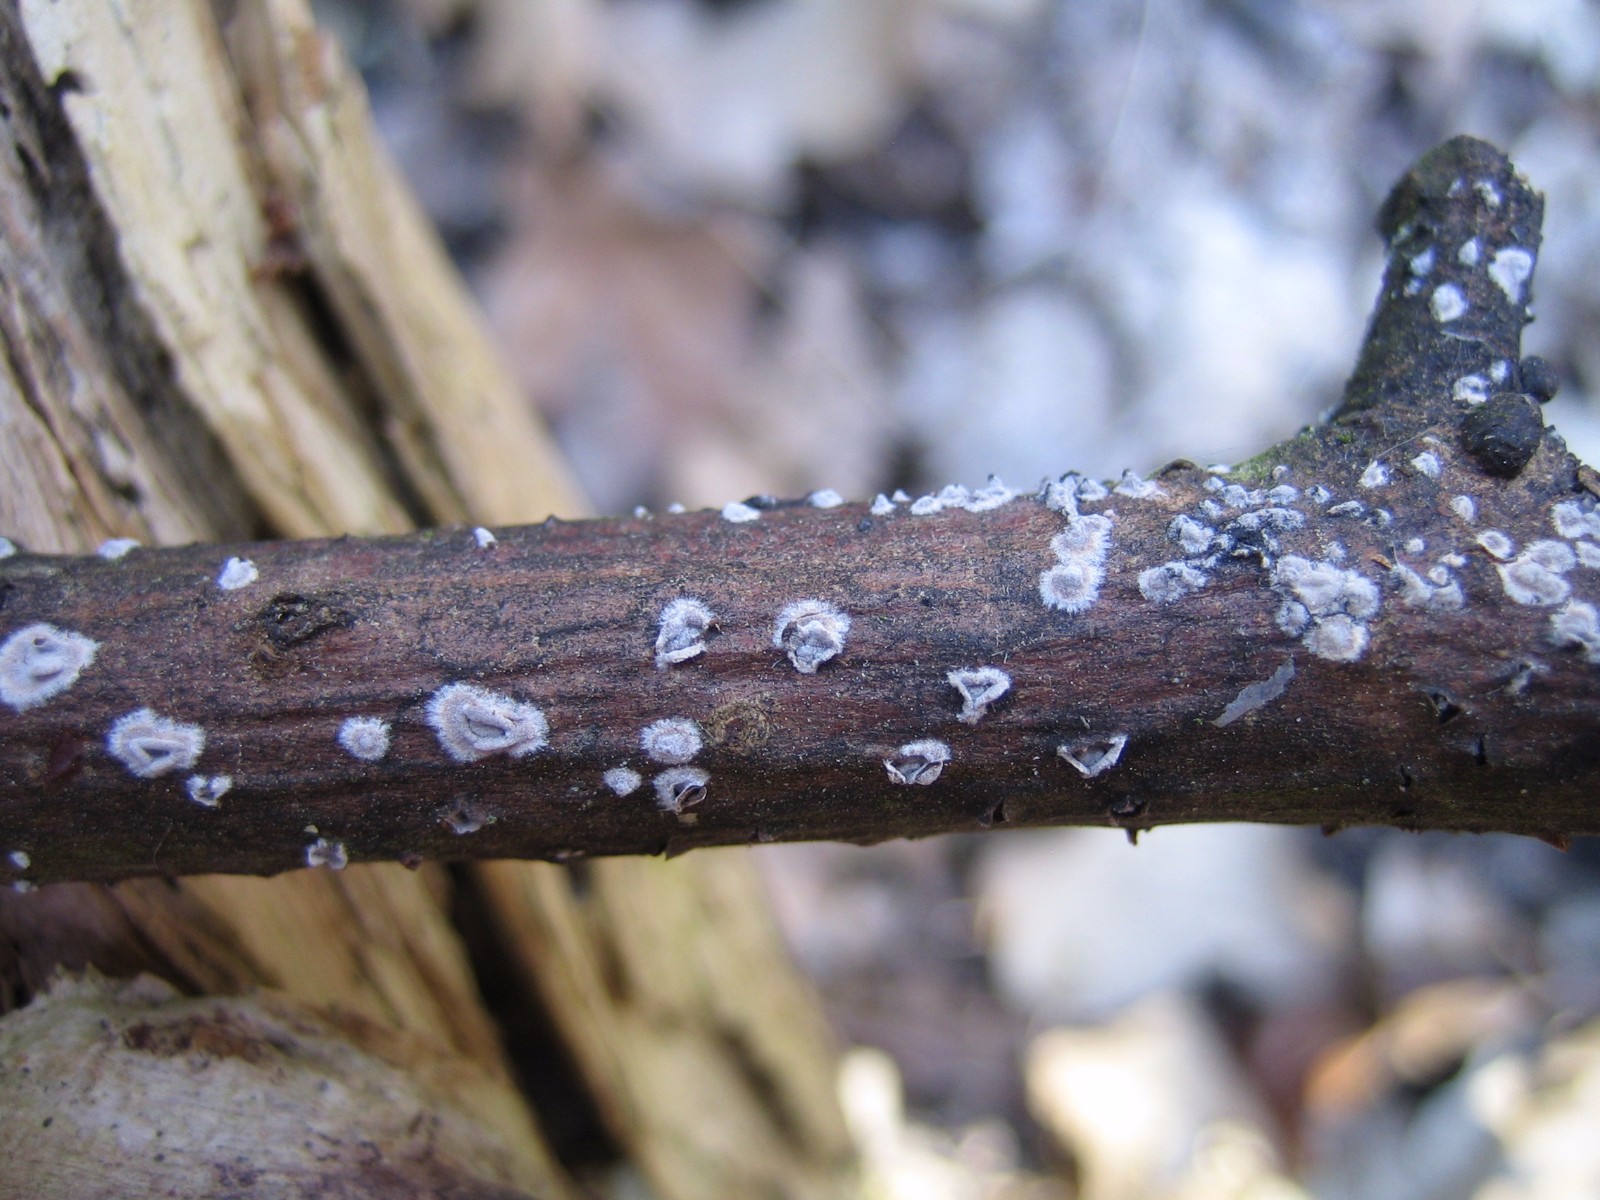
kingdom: Fungi
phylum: Basidiomycota
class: Agaricomycetes
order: Russulales
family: Peniophoraceae
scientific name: Peniophoraceae
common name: voksskindfamilien
